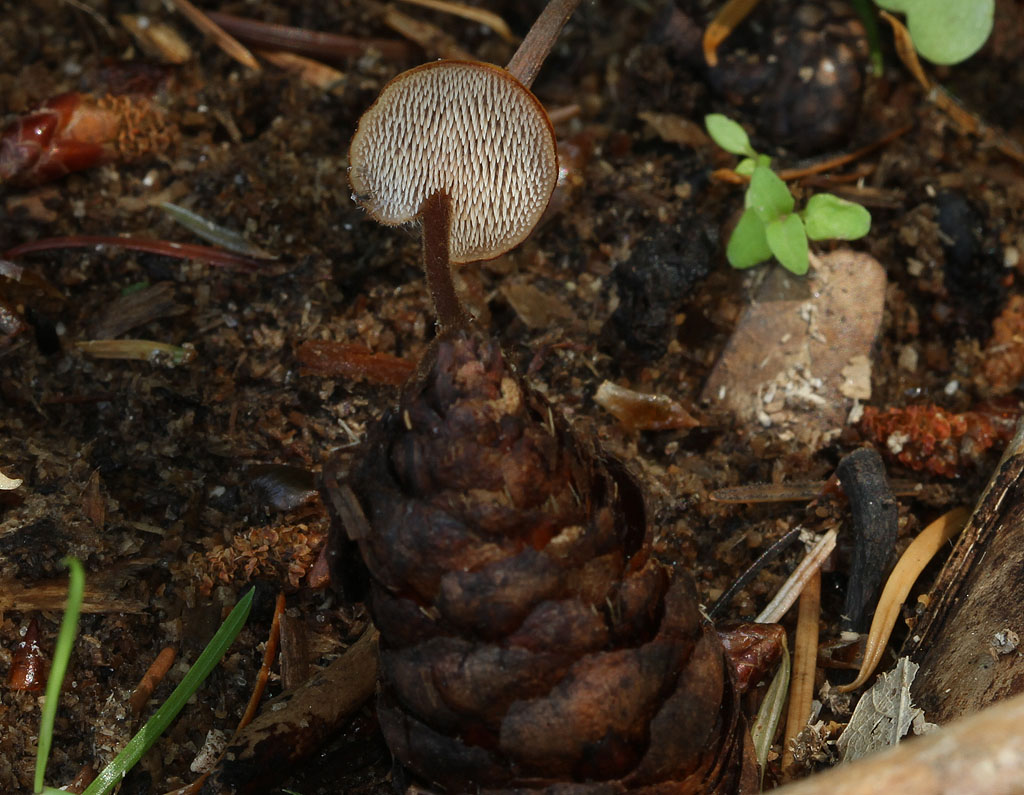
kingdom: Fungi
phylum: Basidiomycota
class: Agaricomycetes
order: Russulales
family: Auriscalpiaceae
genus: Auriscalpium
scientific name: Auriscalpium vulgare
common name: koglepigsvamp
